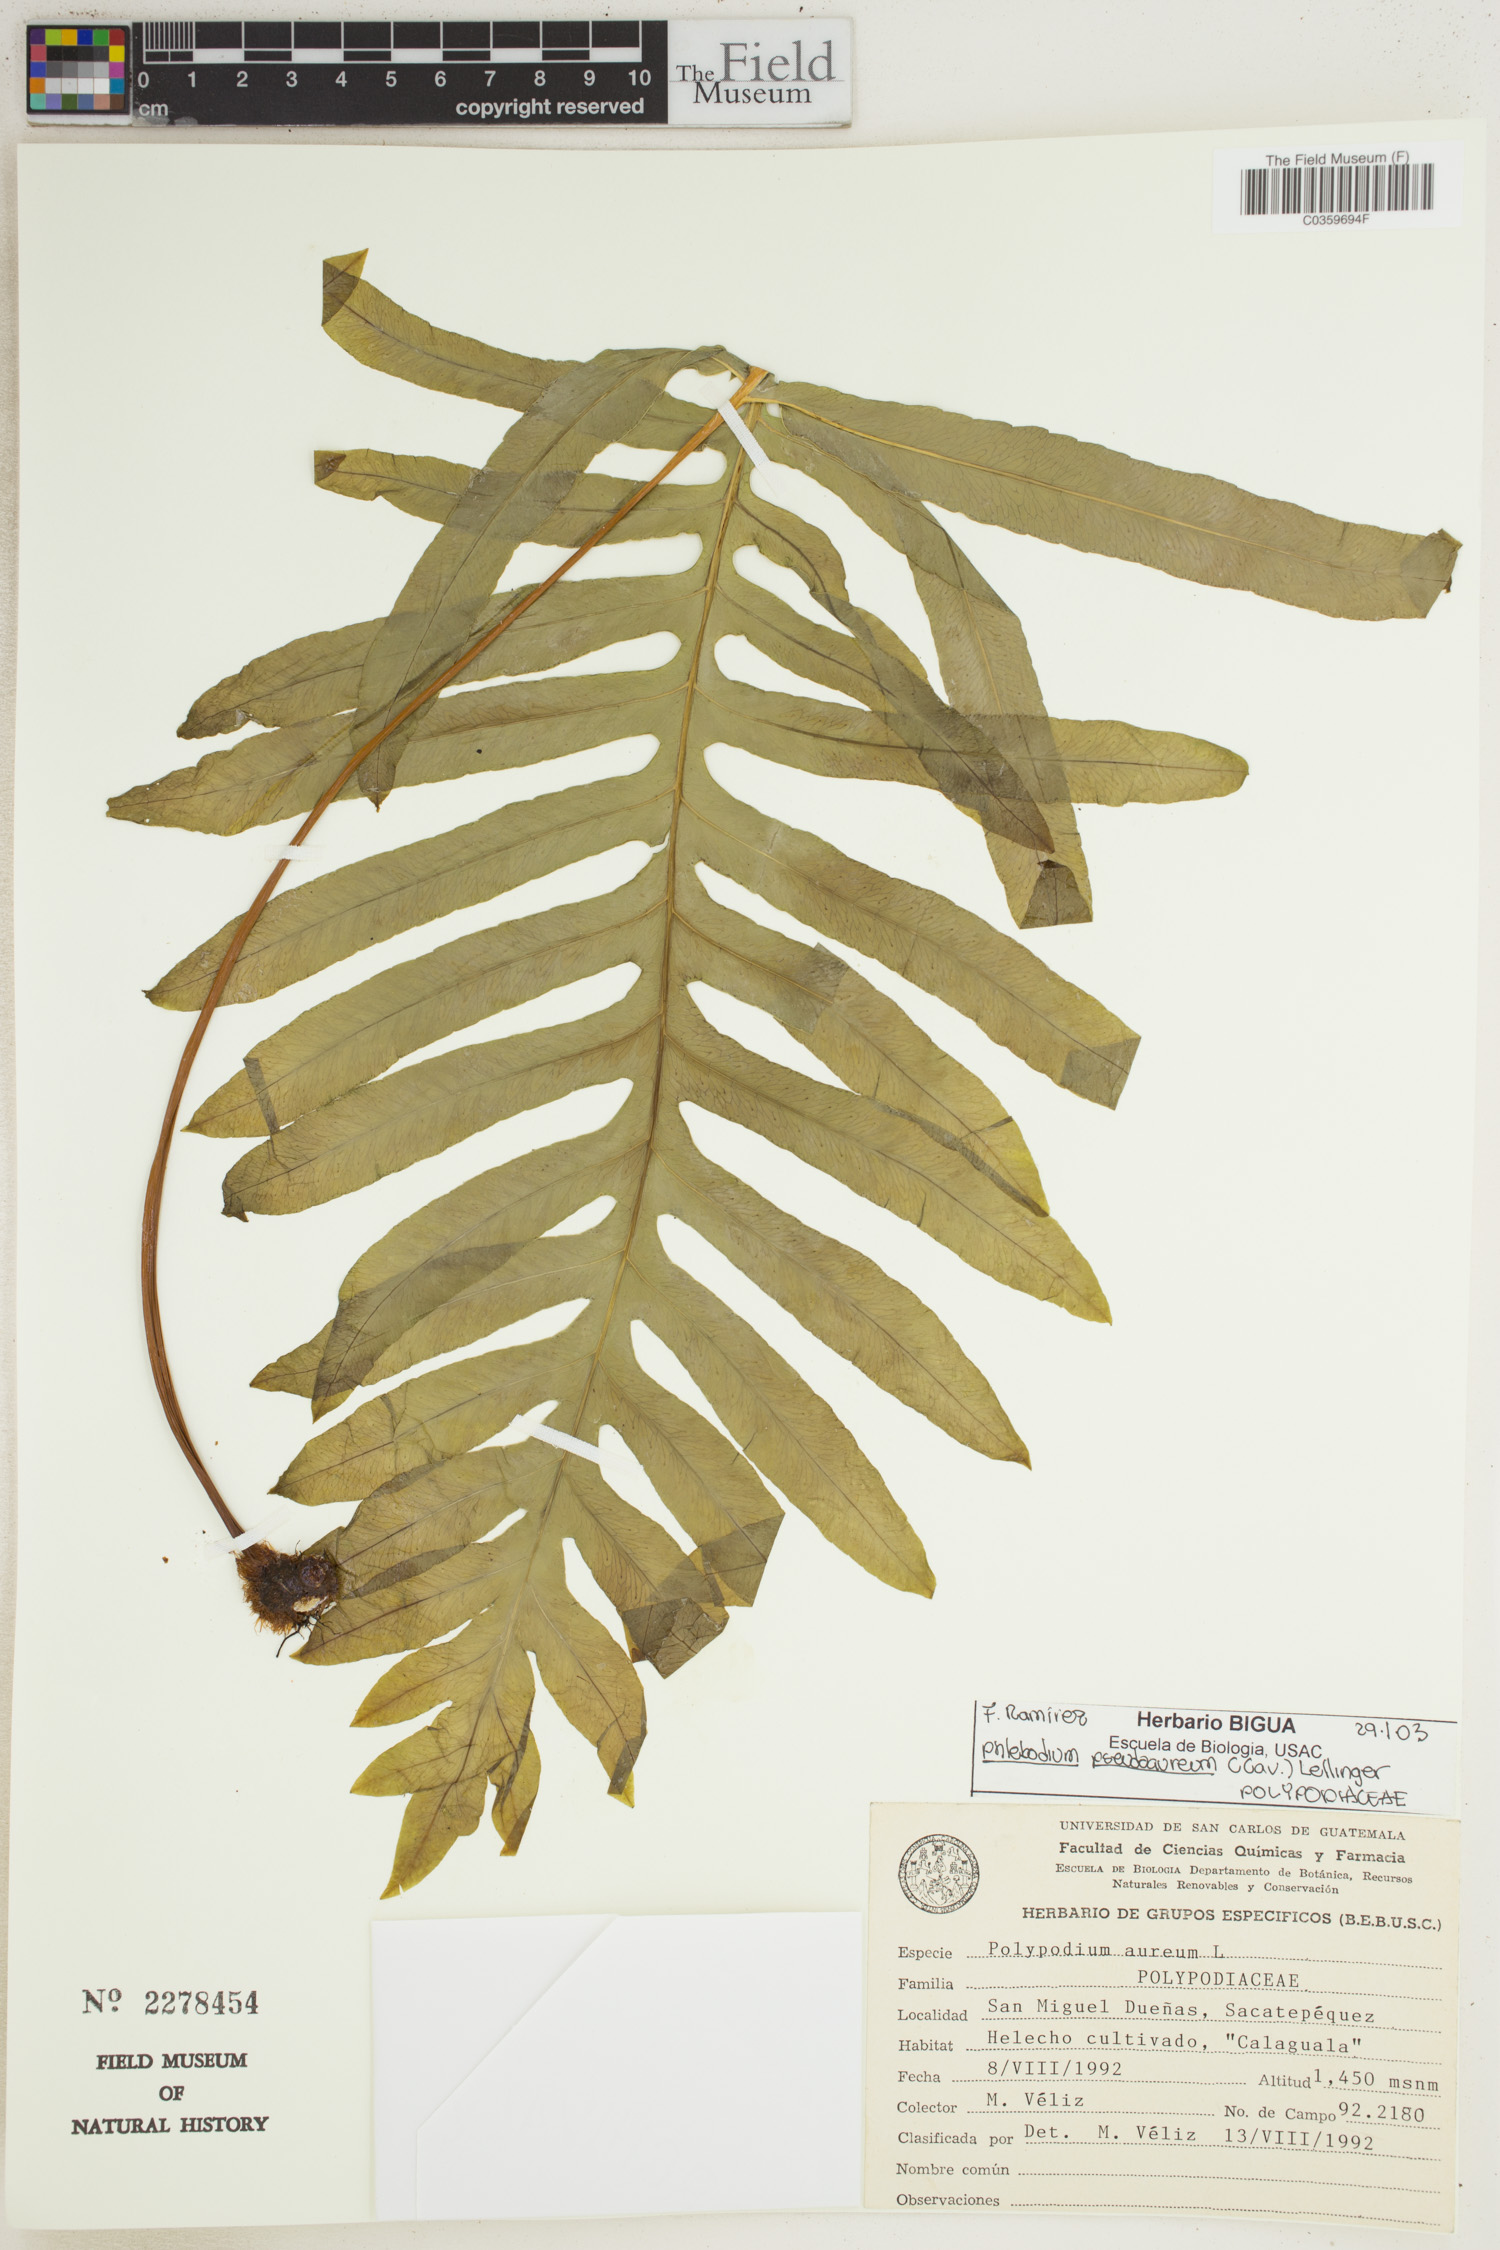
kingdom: Plantae
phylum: Tracheophyta
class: Polypodiopsida
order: Polypodiales
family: Polypodiaceae
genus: Phlebodium
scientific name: Phlebodium pseudoaureum
